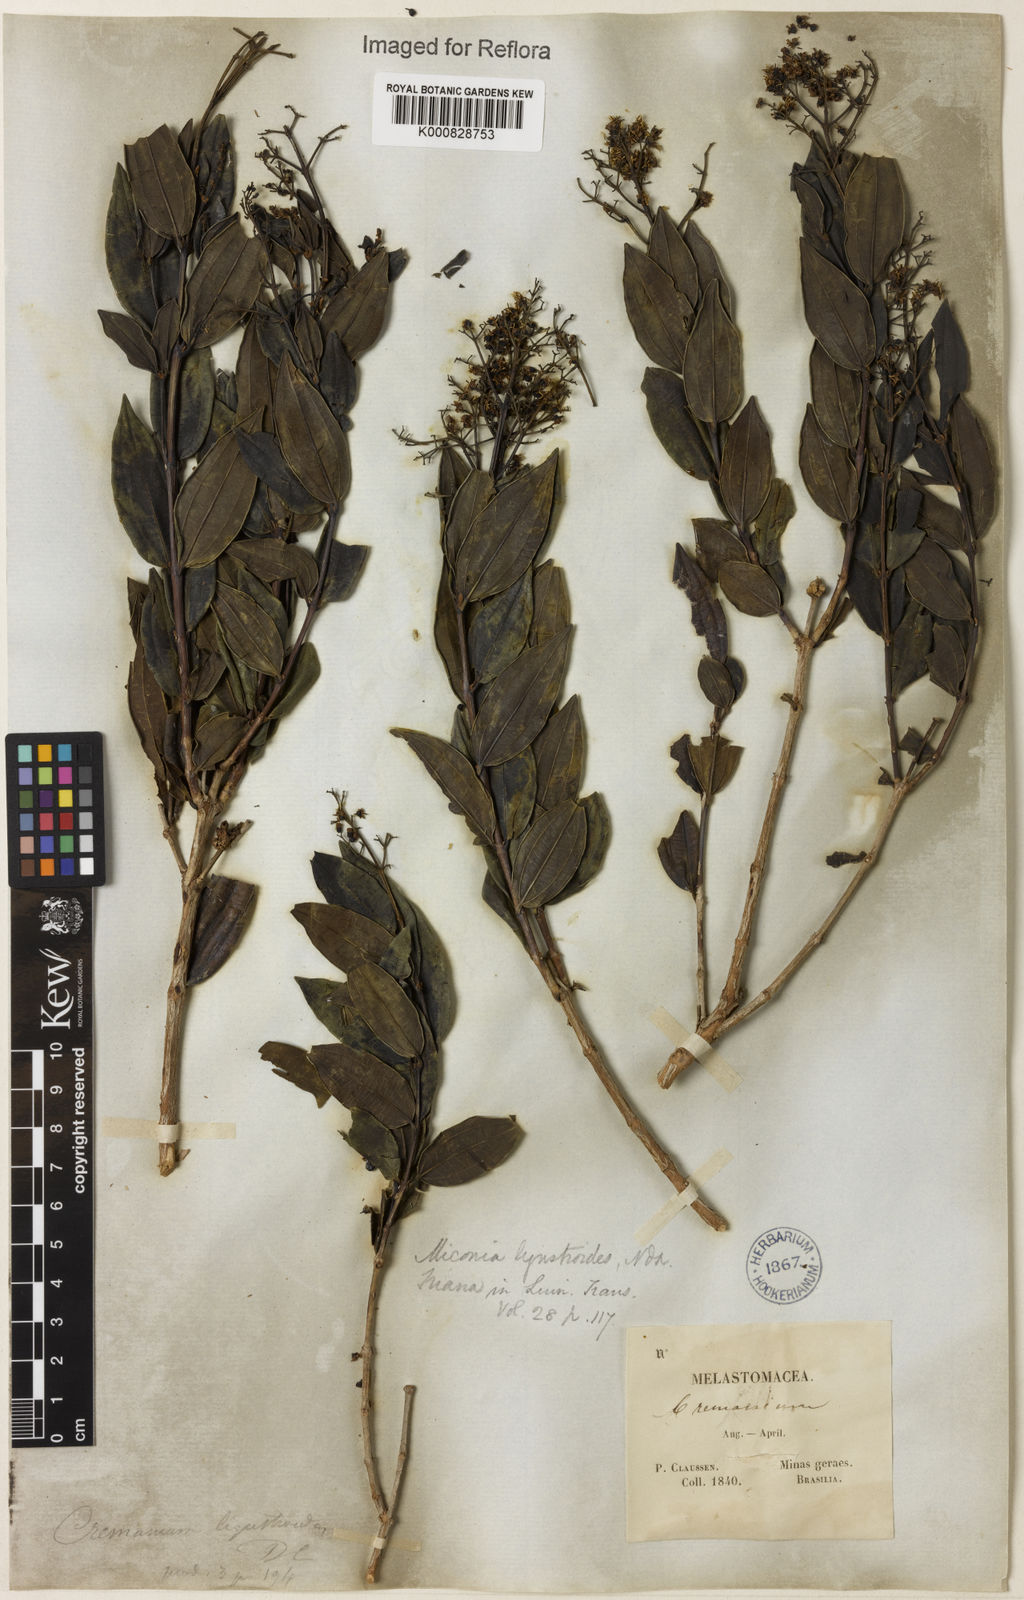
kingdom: Plantae
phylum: Tracheophyta
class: Magnoliopsida
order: Fabales
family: Fabaceae
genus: Senna
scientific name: Senna macranthera
